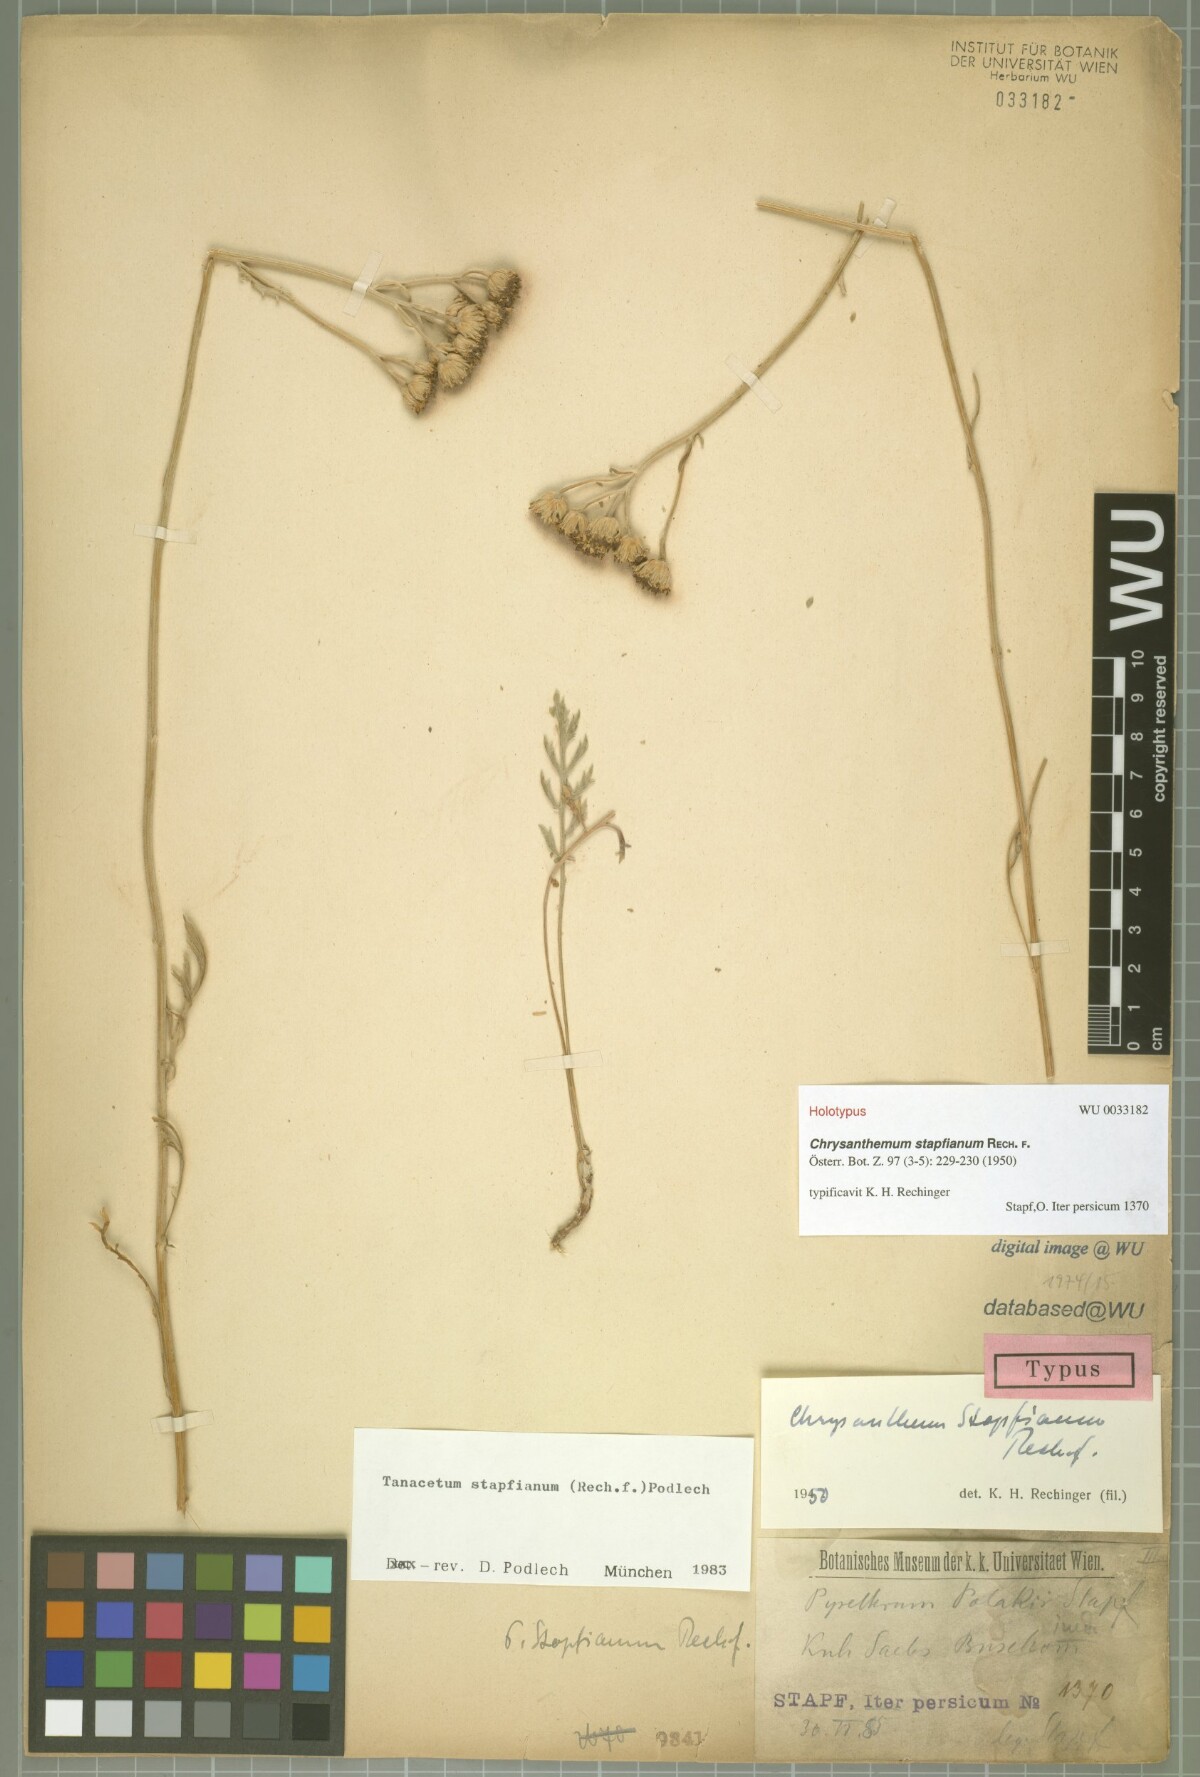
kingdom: Plantae
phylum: Tracheophyta
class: Magnoliopsida
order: Asterales
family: Asteraceae
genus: Tanacetum
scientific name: Tanacetum stapfianum
